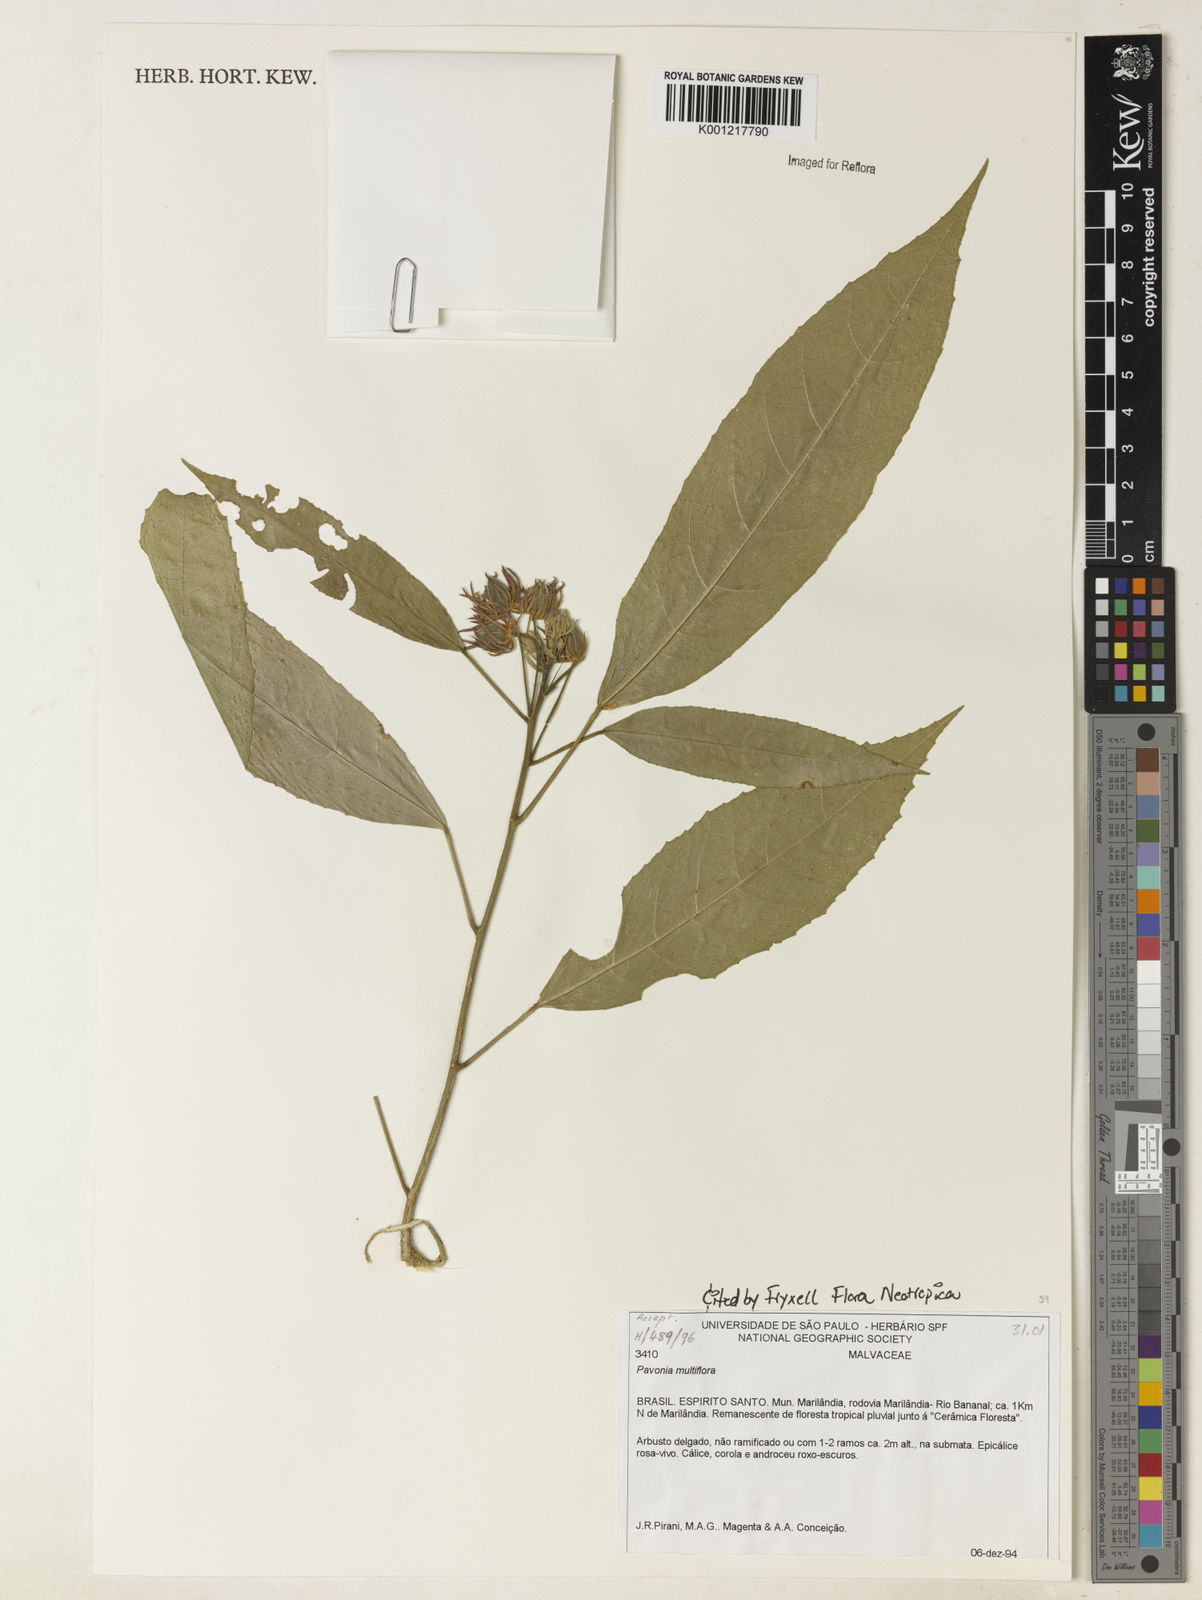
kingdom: Plantae
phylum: Tracheophyta
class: Magnoliopsida
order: Malvales
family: Malvaceae
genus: Pavonia
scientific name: Pavonia multiflora
